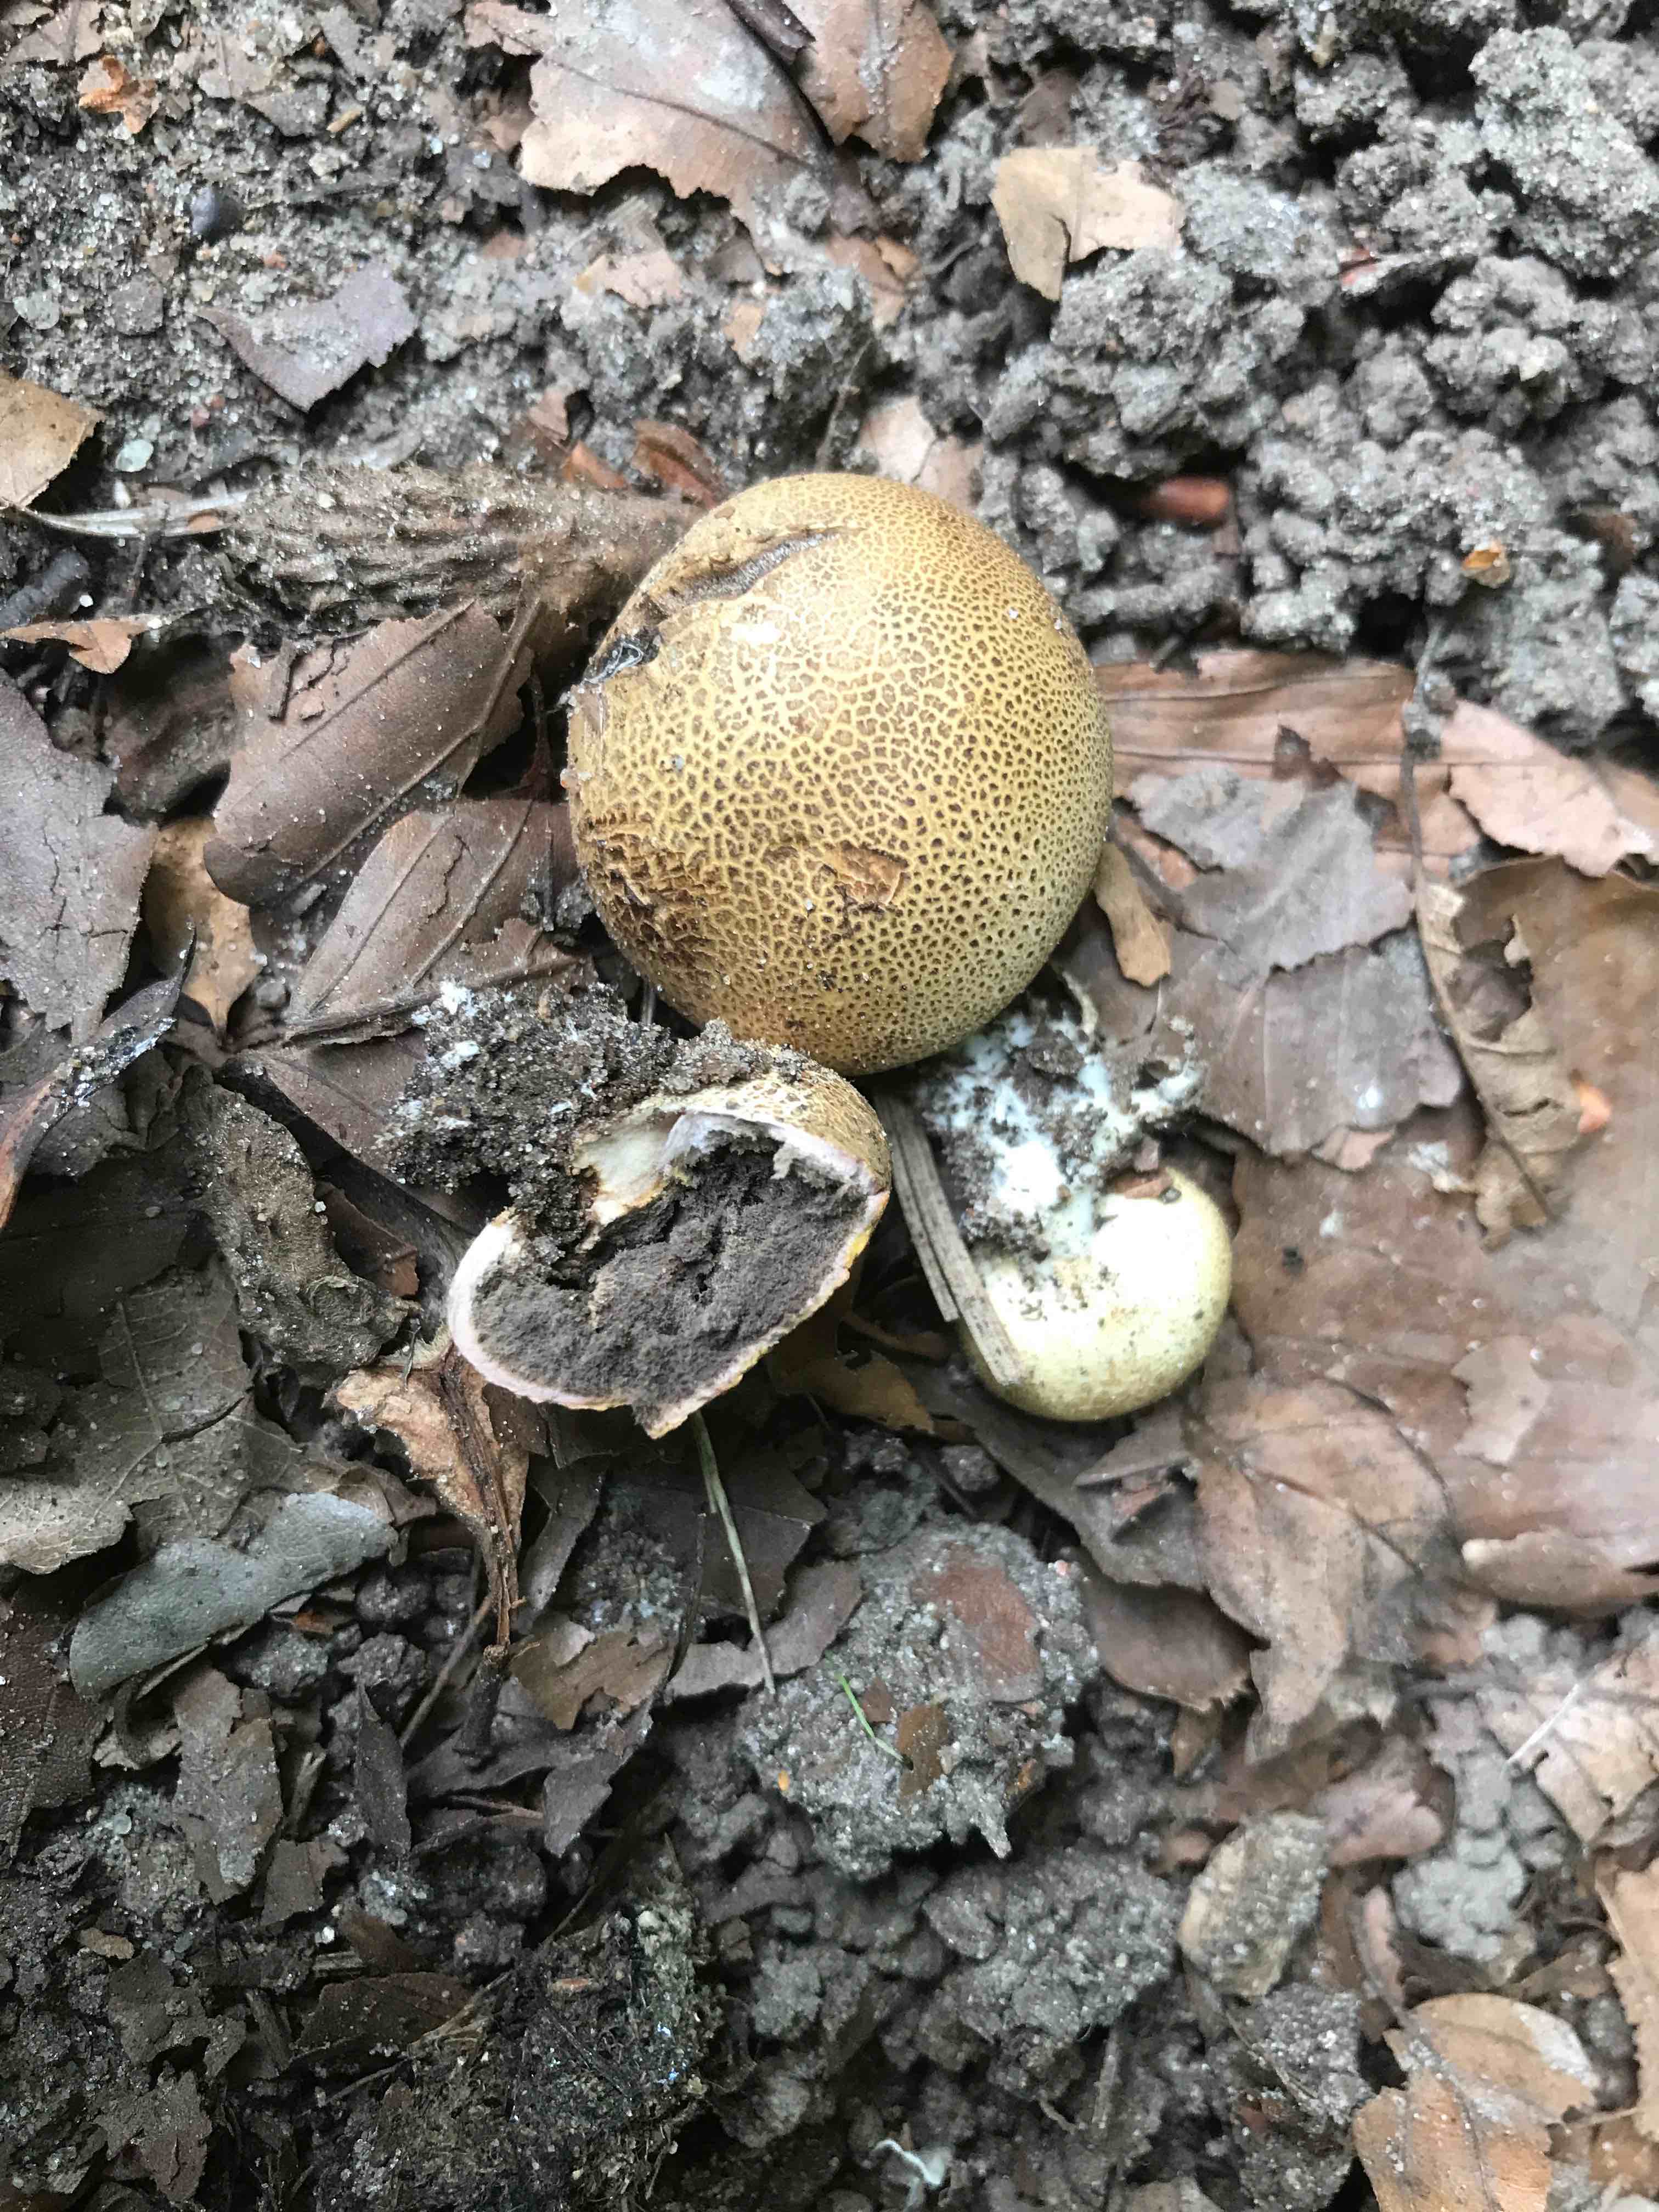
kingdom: Fungi
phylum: Basidiomycota
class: Agaricomycetes
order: Boletales
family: Sclerodermataceae
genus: Scleroderma
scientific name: Scleroderma areolatum
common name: plettet bruskbold
